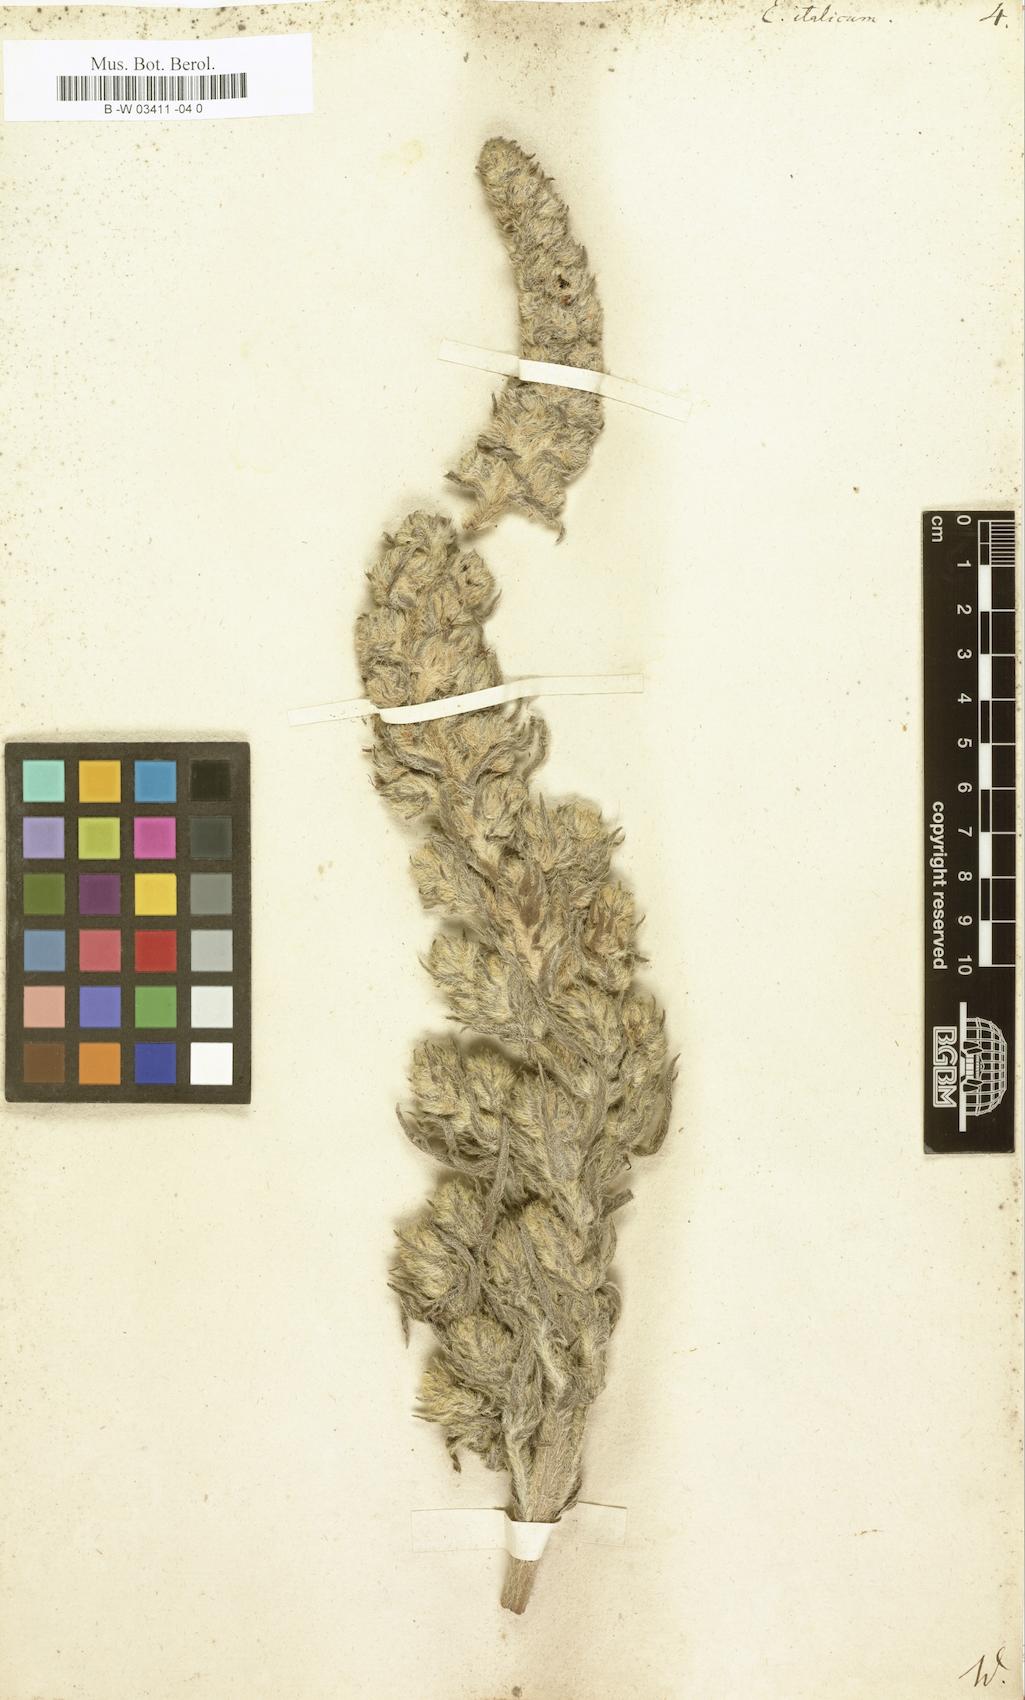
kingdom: Plantae
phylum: Tracheophyta
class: Magnoliopsida
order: Boraginales
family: Boraginaceae
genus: Echium
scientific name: Echium italicum
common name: Italian viper's bugloss
